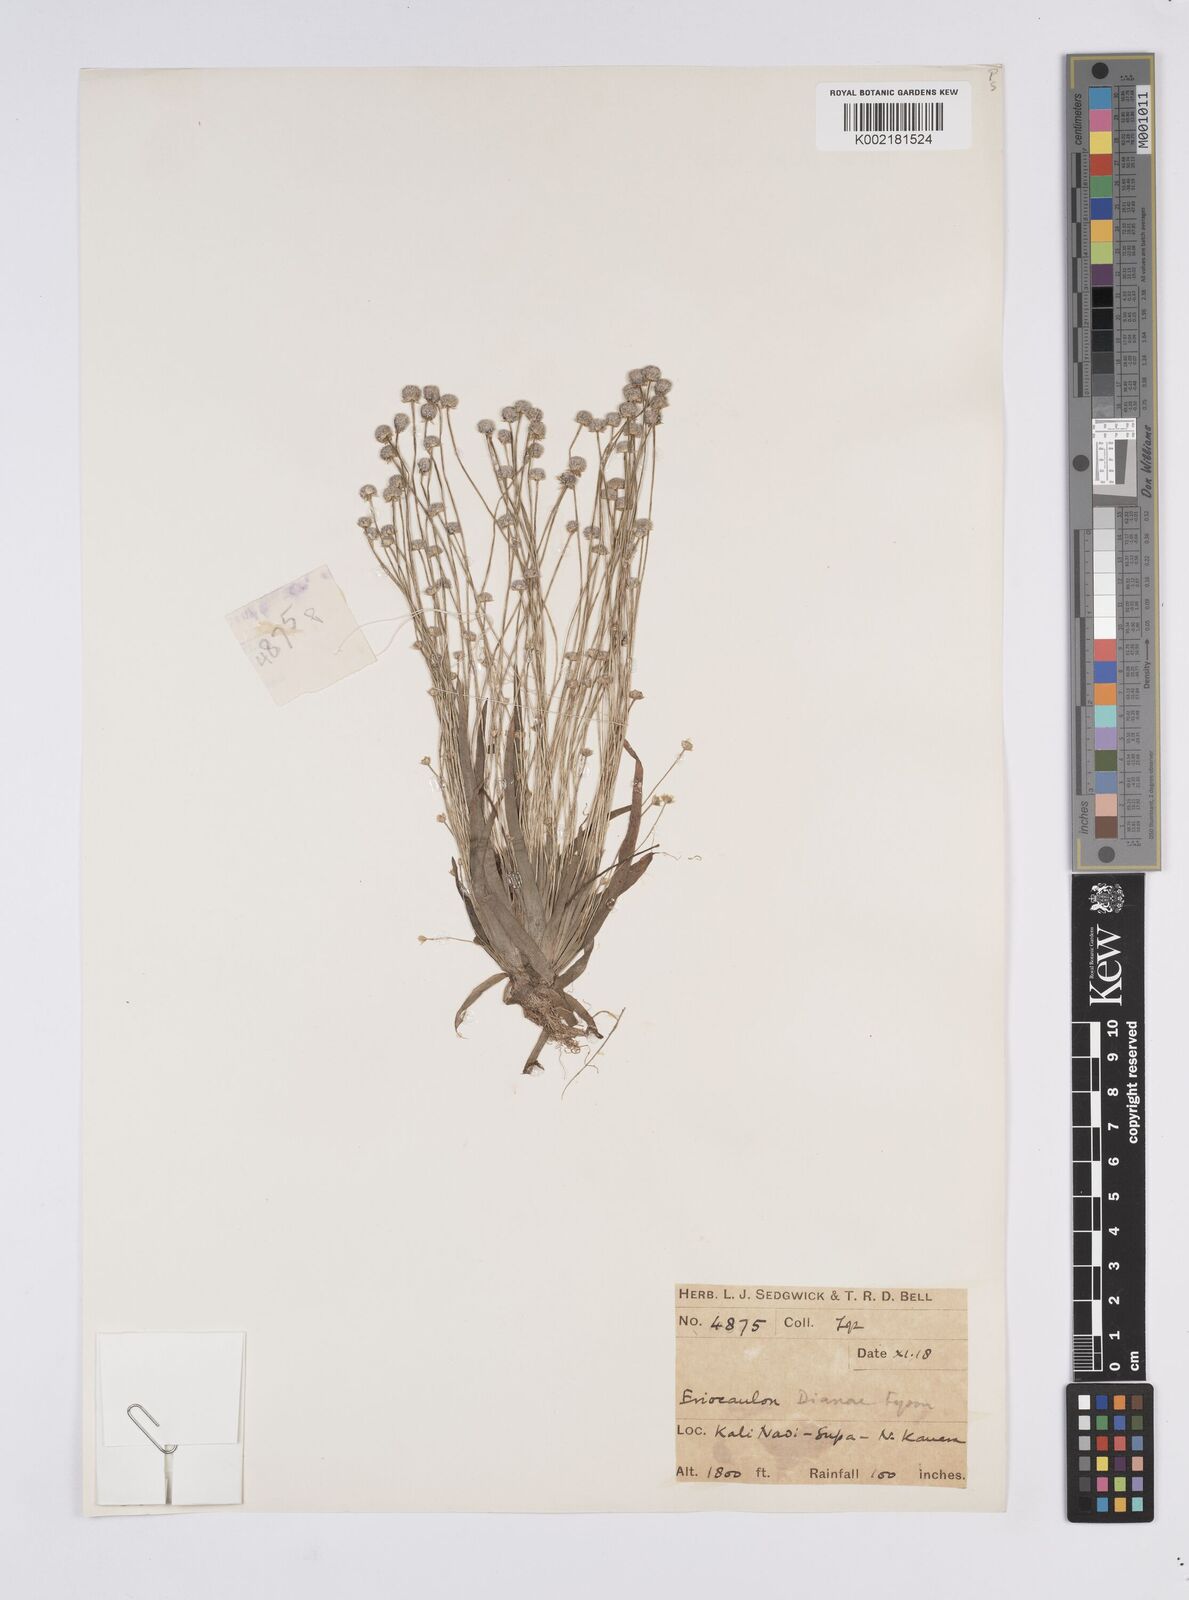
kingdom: Plantae
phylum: Tracheophyta
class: Liliopsida
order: Poales
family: Eriocaulaceae
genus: Eriocaulon
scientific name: Eriocaulon heterolepis
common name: Buttonhead pipewort
